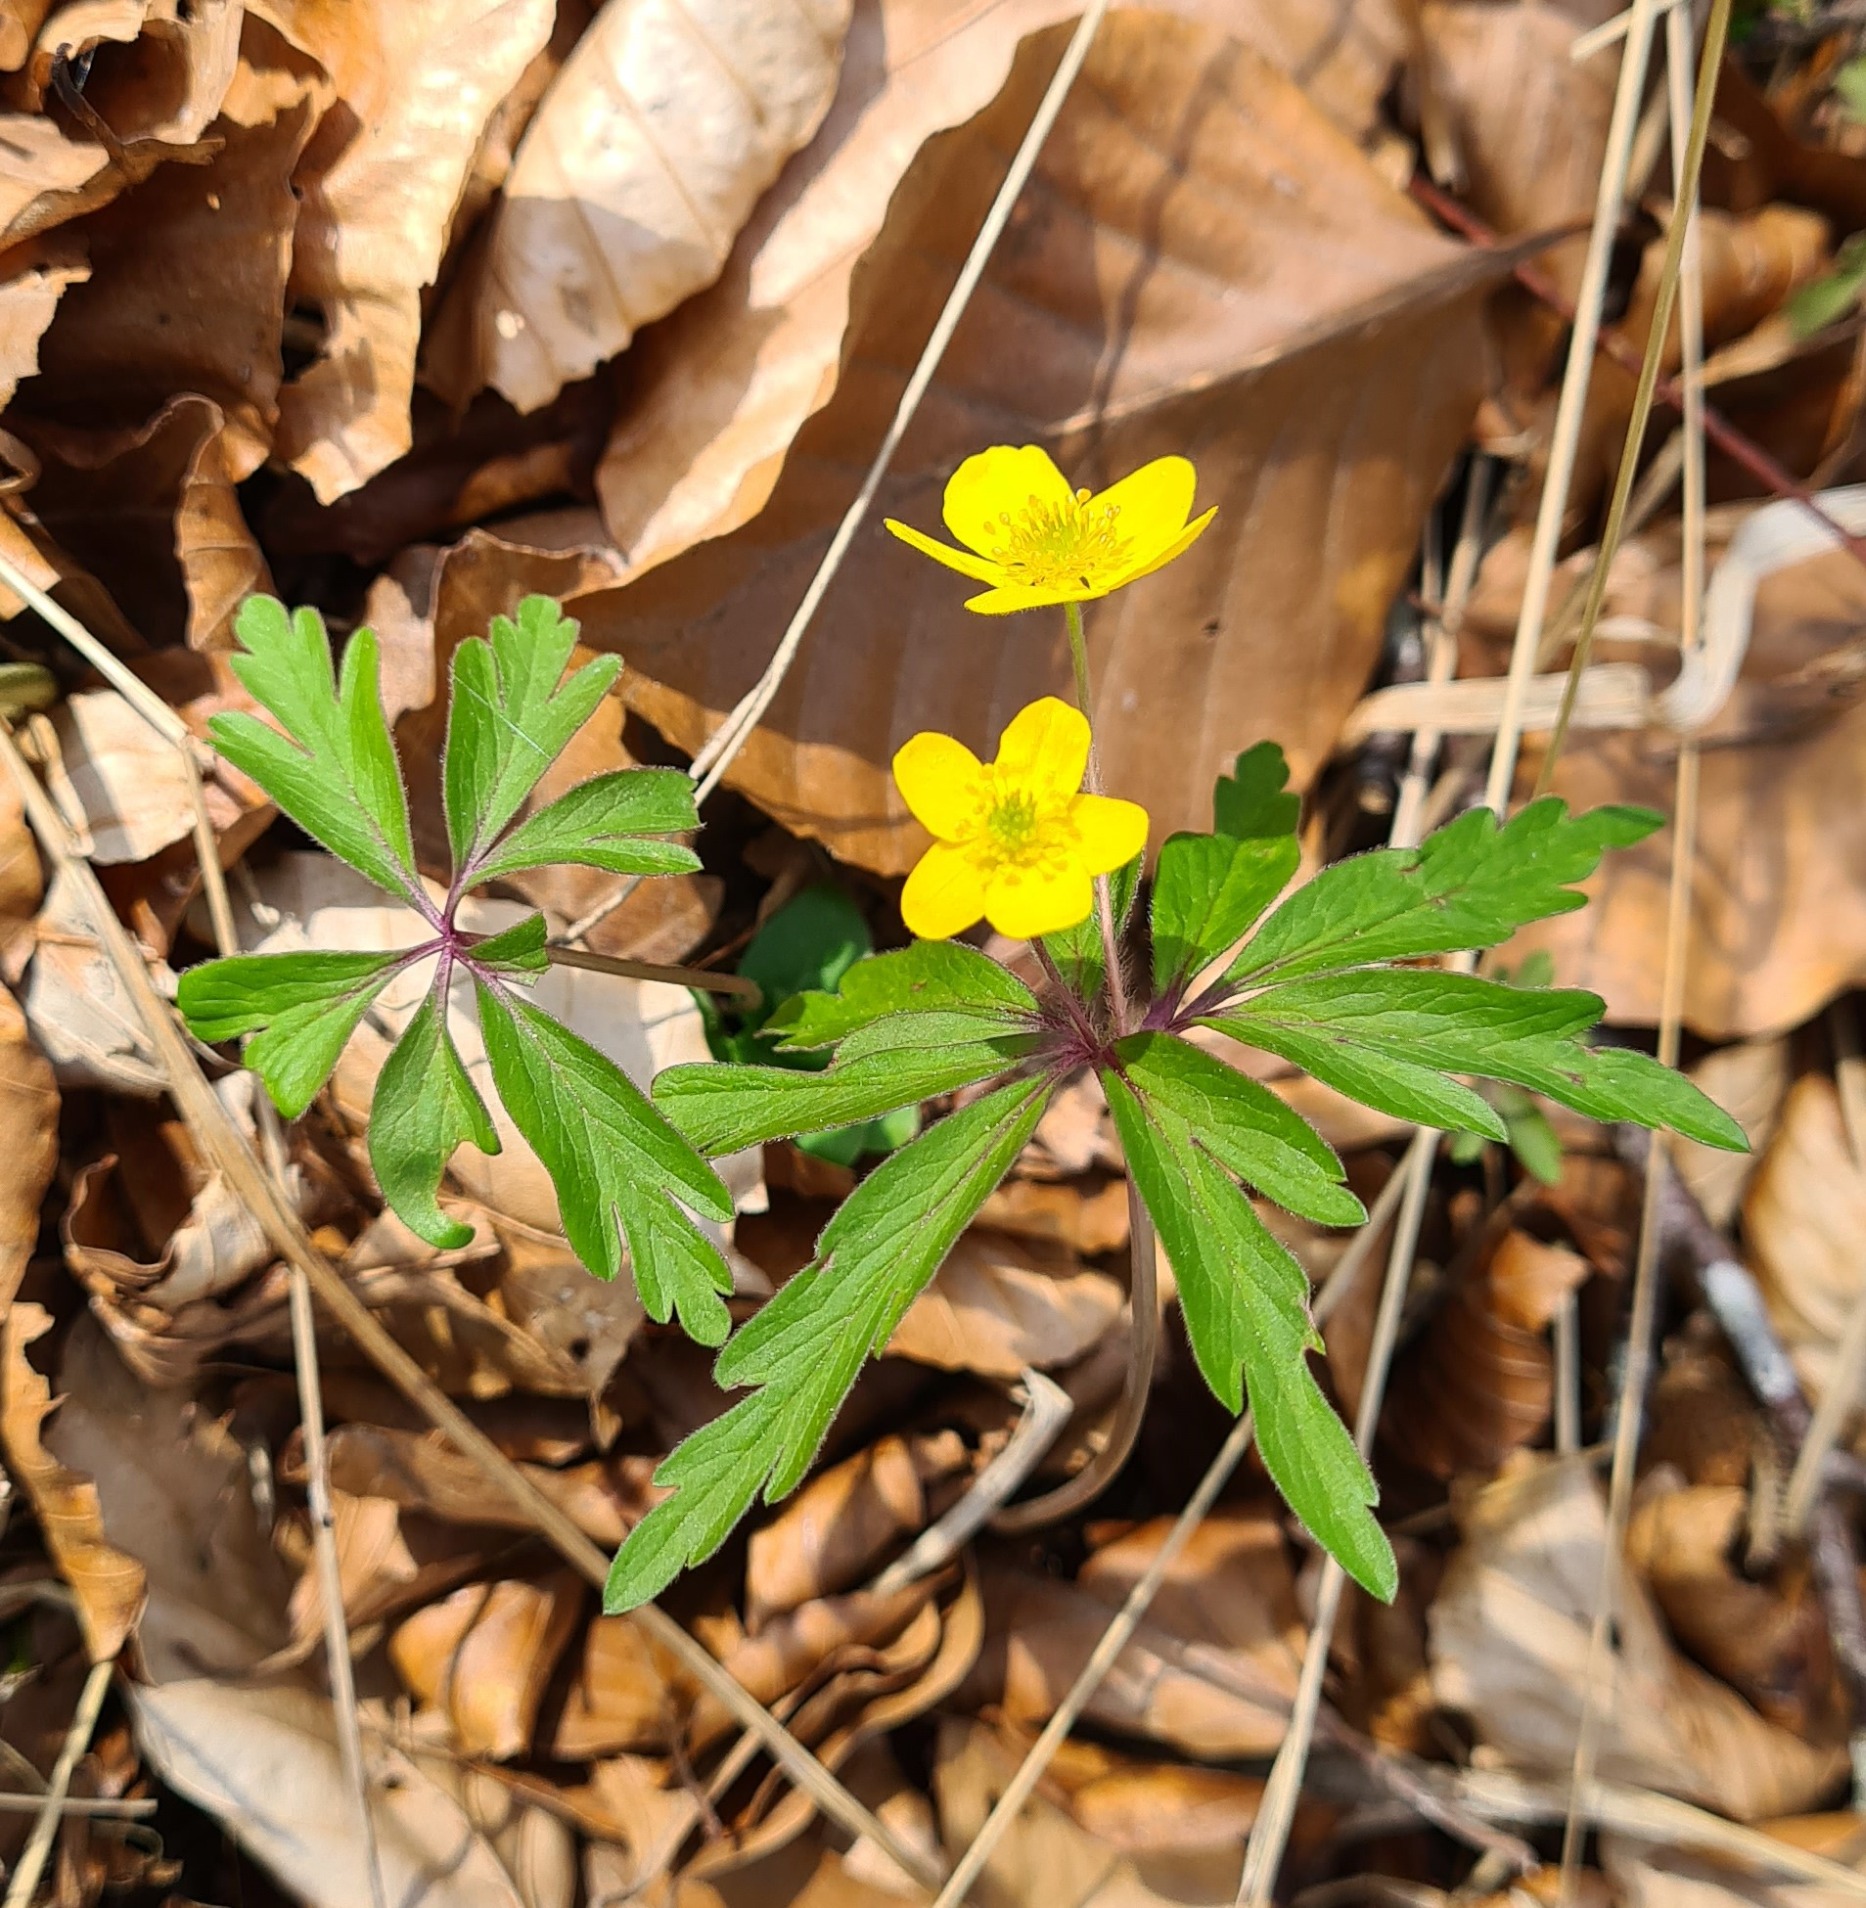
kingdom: Plantae
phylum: Tracheophyta
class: Magnoliopsida
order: Ranunculales
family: Ranunculaceae
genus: Anemone
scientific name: Anemone ranunculoides
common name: Gul anemone
